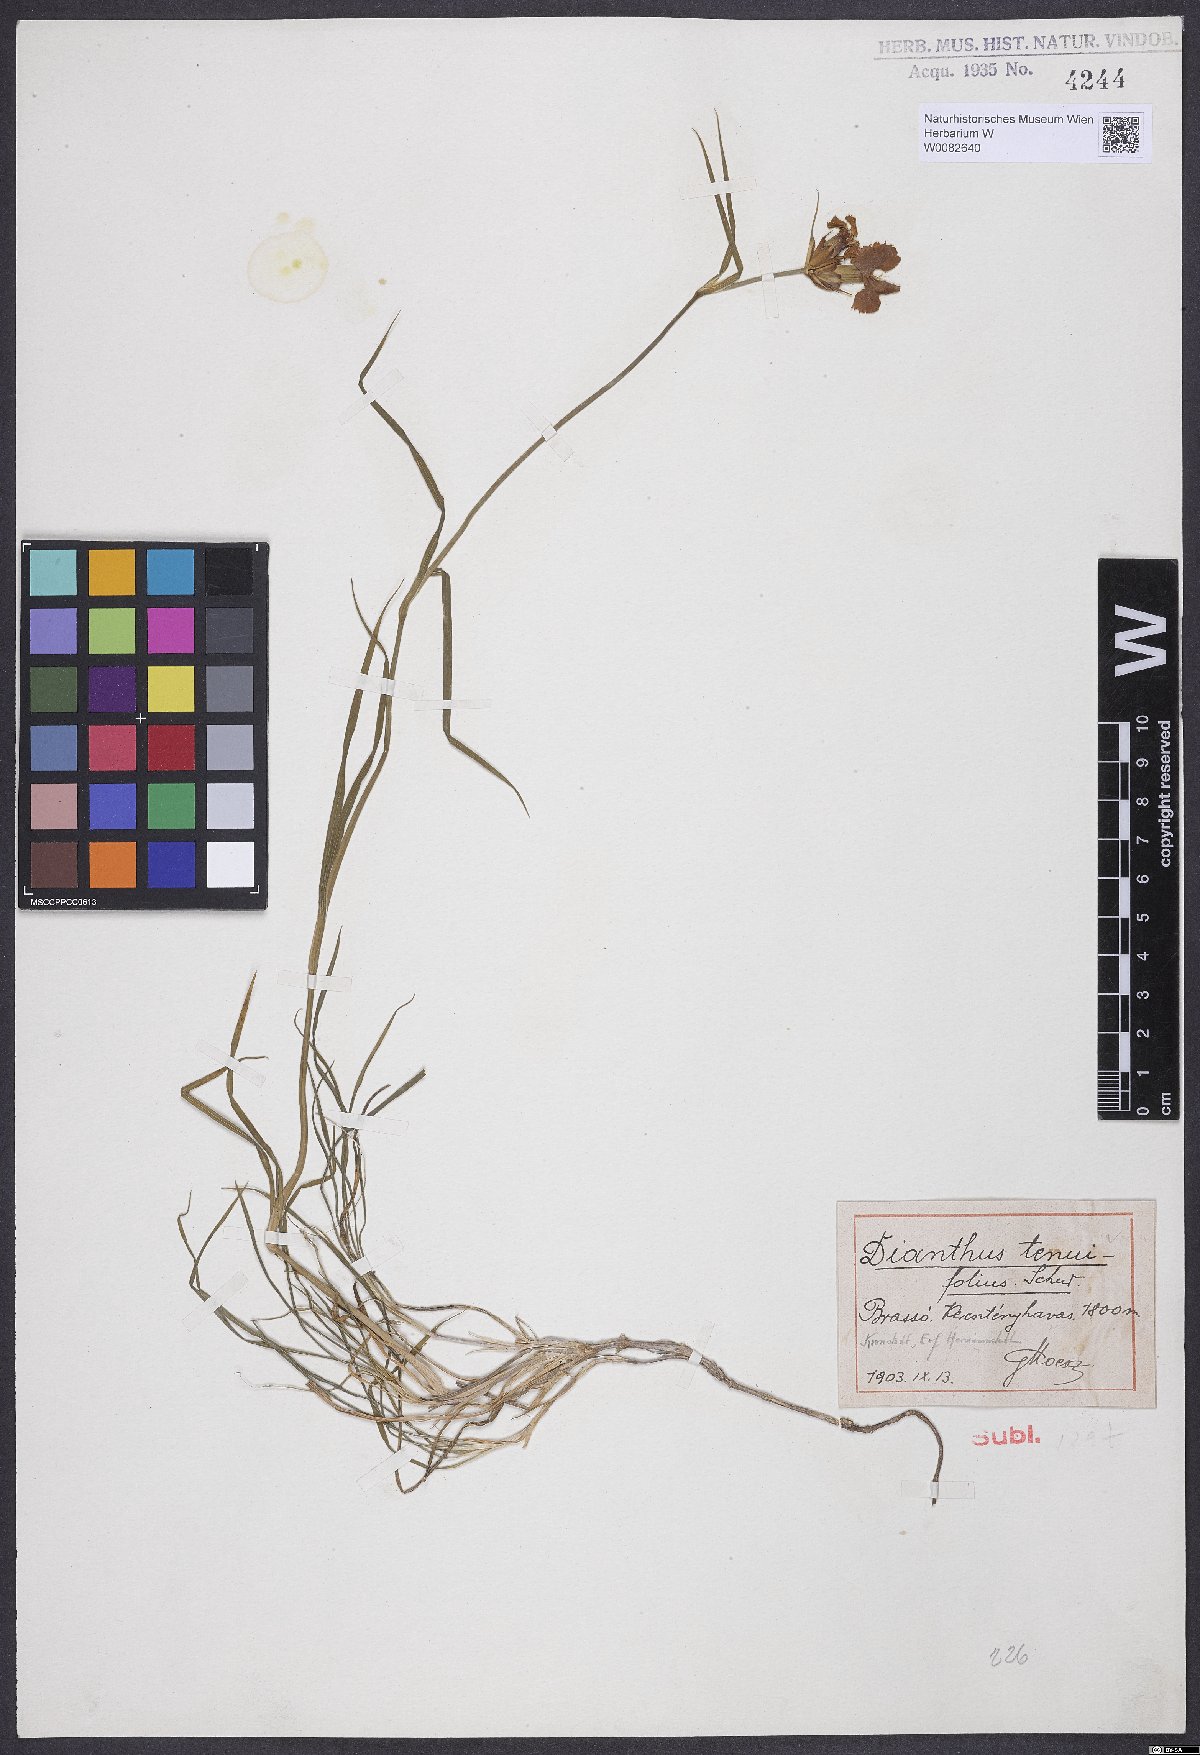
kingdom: Plantae
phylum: Tracheophyta
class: Magnoliopsida
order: Caryophyllales
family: Caryophyllaceae
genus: Dianthus
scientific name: Dianthus carthusianorum
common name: Carthusian pink
